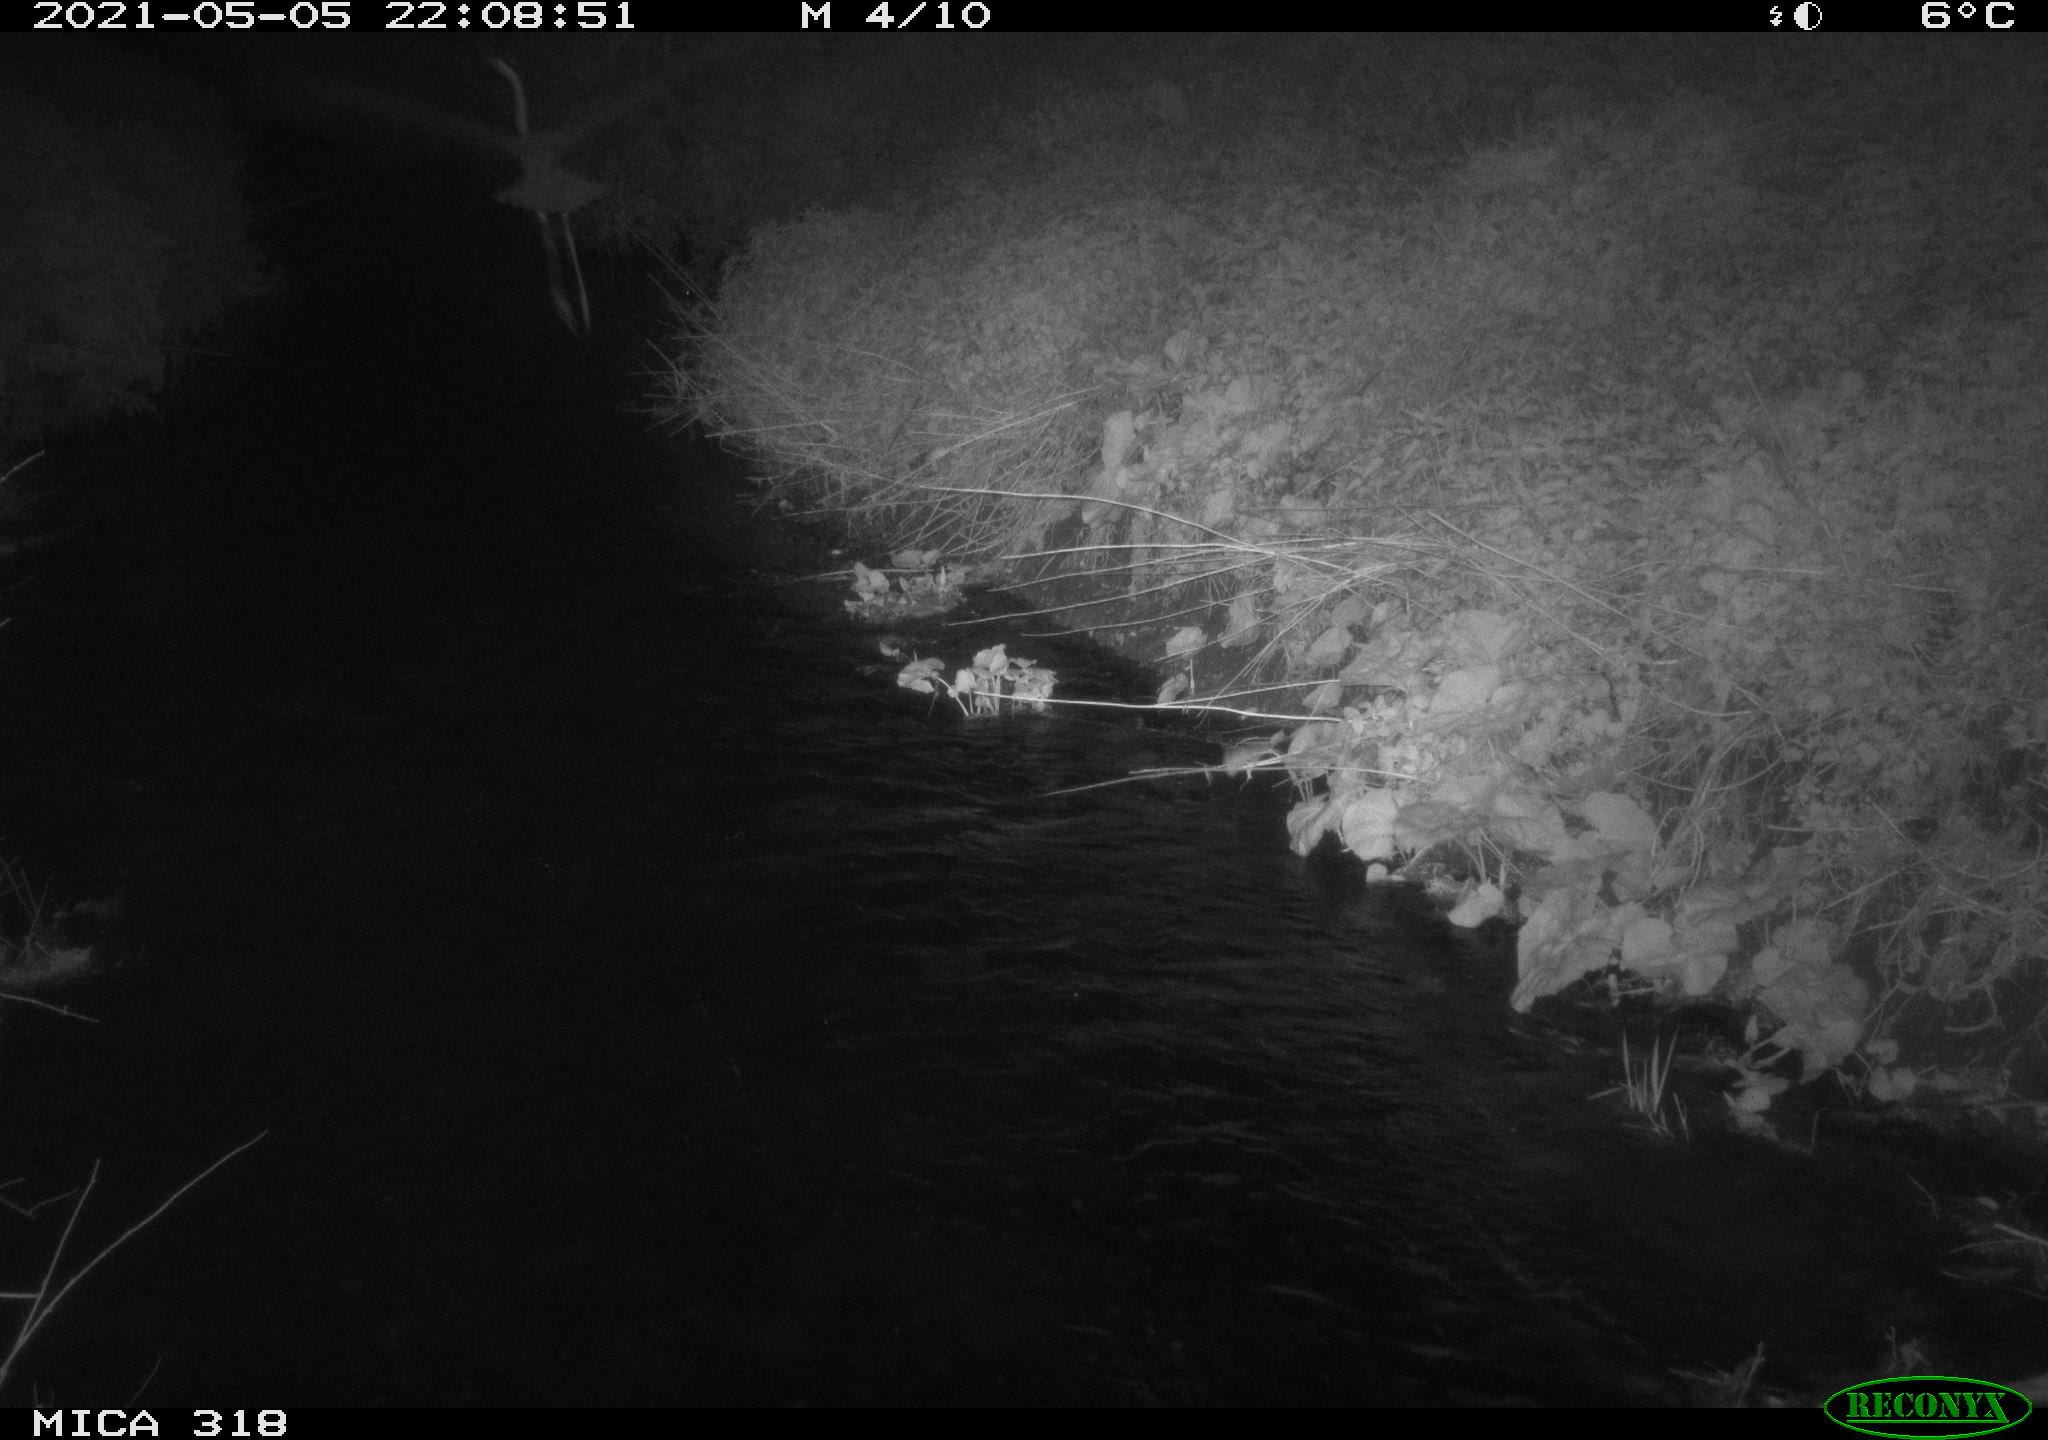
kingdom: Animalia
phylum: Chordata
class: Aves
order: Pelecaniformes
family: Ardeidae
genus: Ardea
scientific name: Ardea
